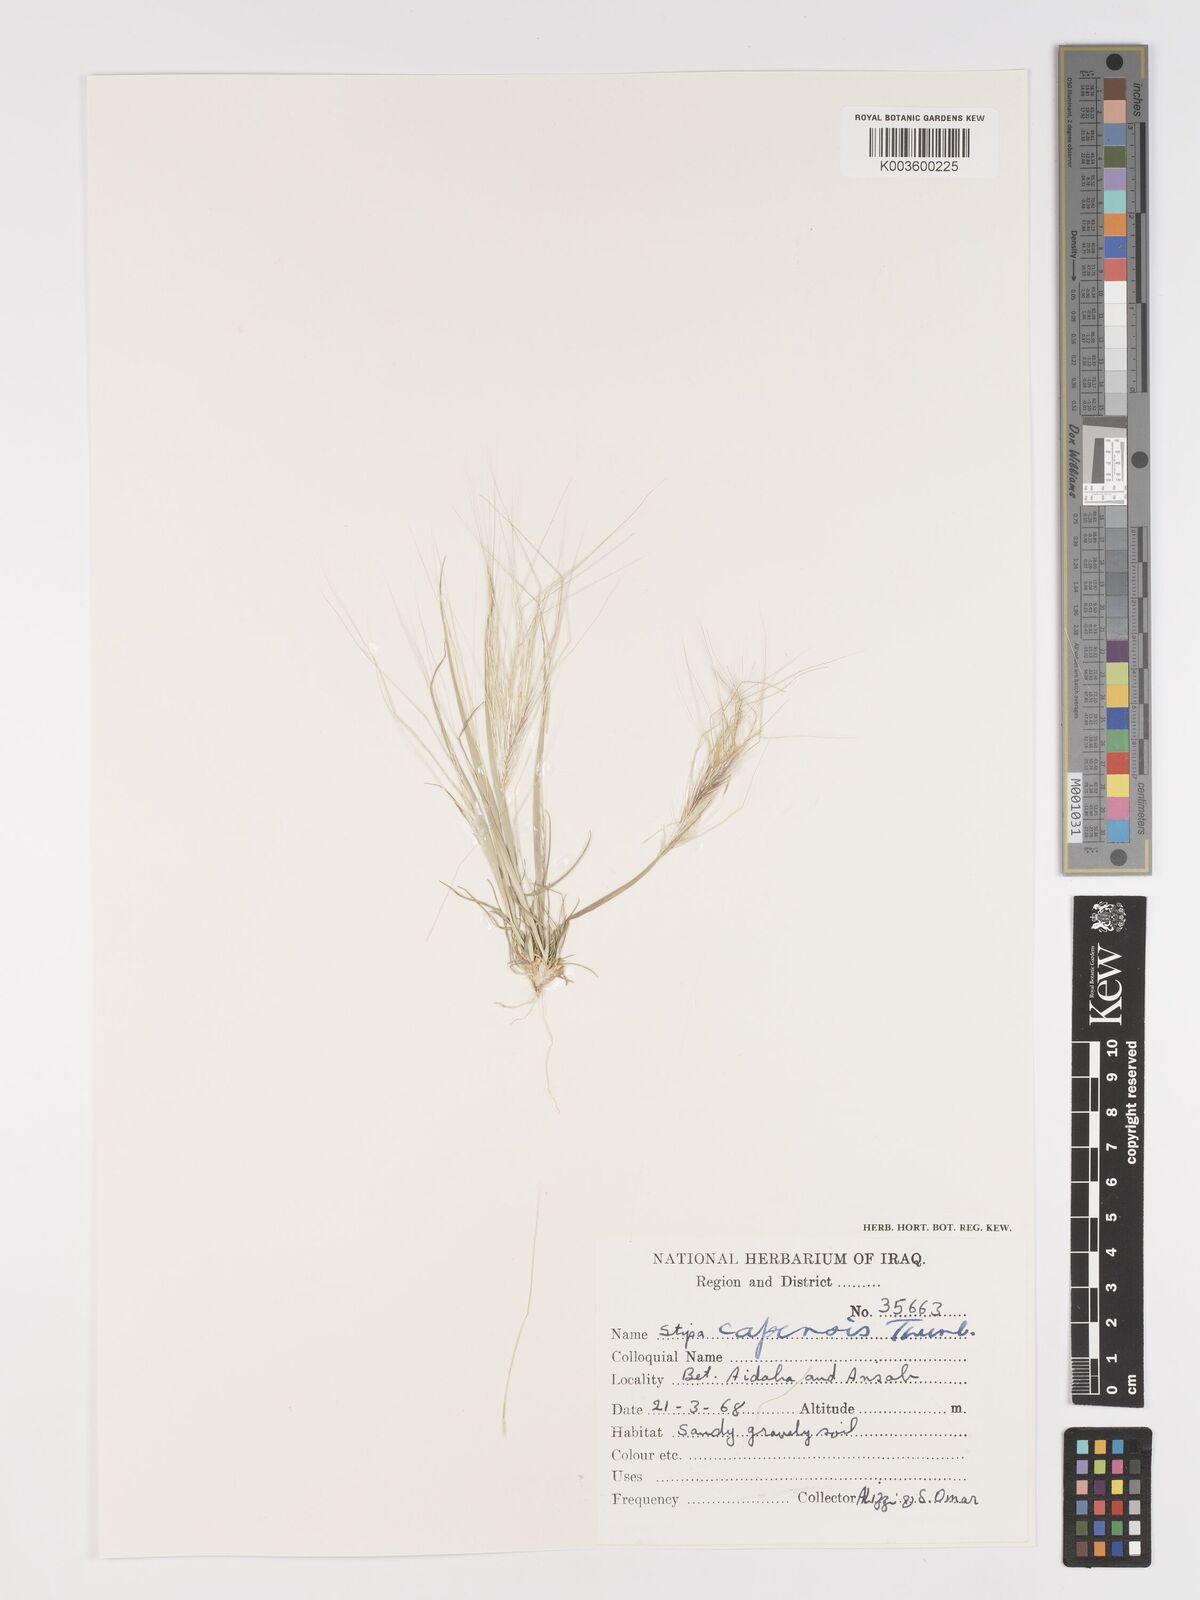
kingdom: Plantae
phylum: Tracheophyta
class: Liliopsida
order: Poales
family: Poaceae
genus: Stipellula
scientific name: Stipellula capensis
